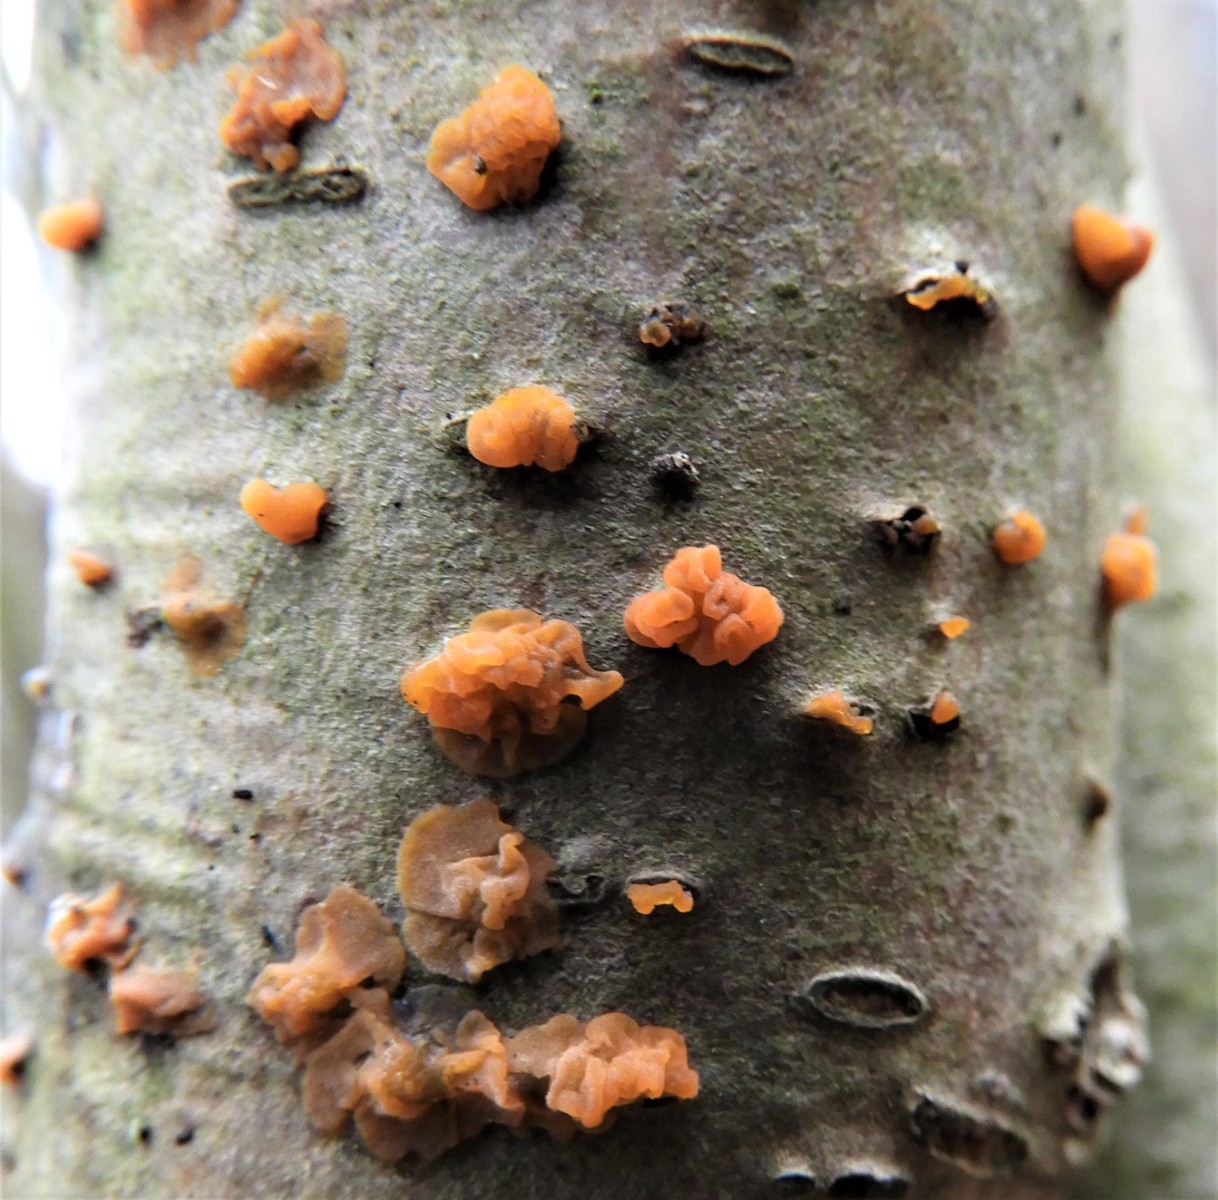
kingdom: Fungi
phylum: Basidiomycota
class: Dacrymycetes
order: Dacrymycetales
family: Dacrymycetaceae
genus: Dacrymyces
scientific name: Dacrymyces lacrymalis
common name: rynket tåresvamp
